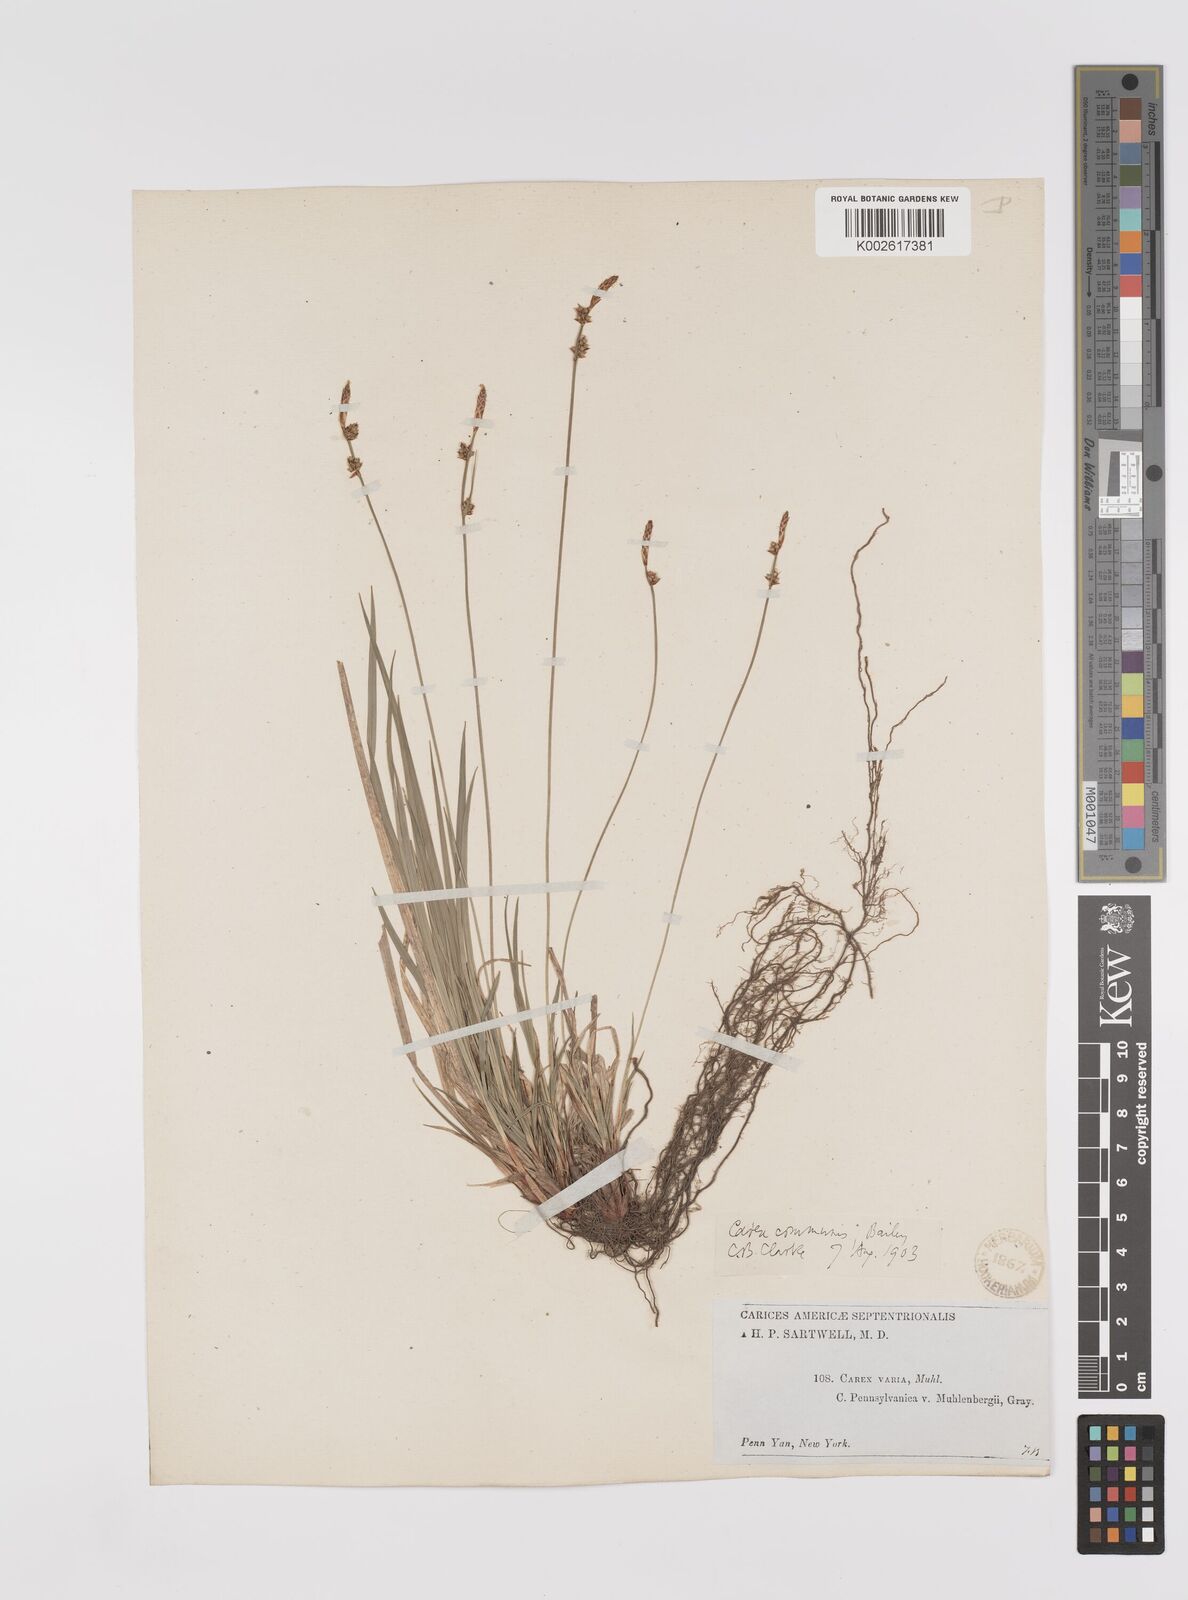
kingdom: Plantae
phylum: Tracheophyta
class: Liliopsida
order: Poales
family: Cyperaceae
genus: Carex
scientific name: Carex communis
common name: Colonial oak sedge
